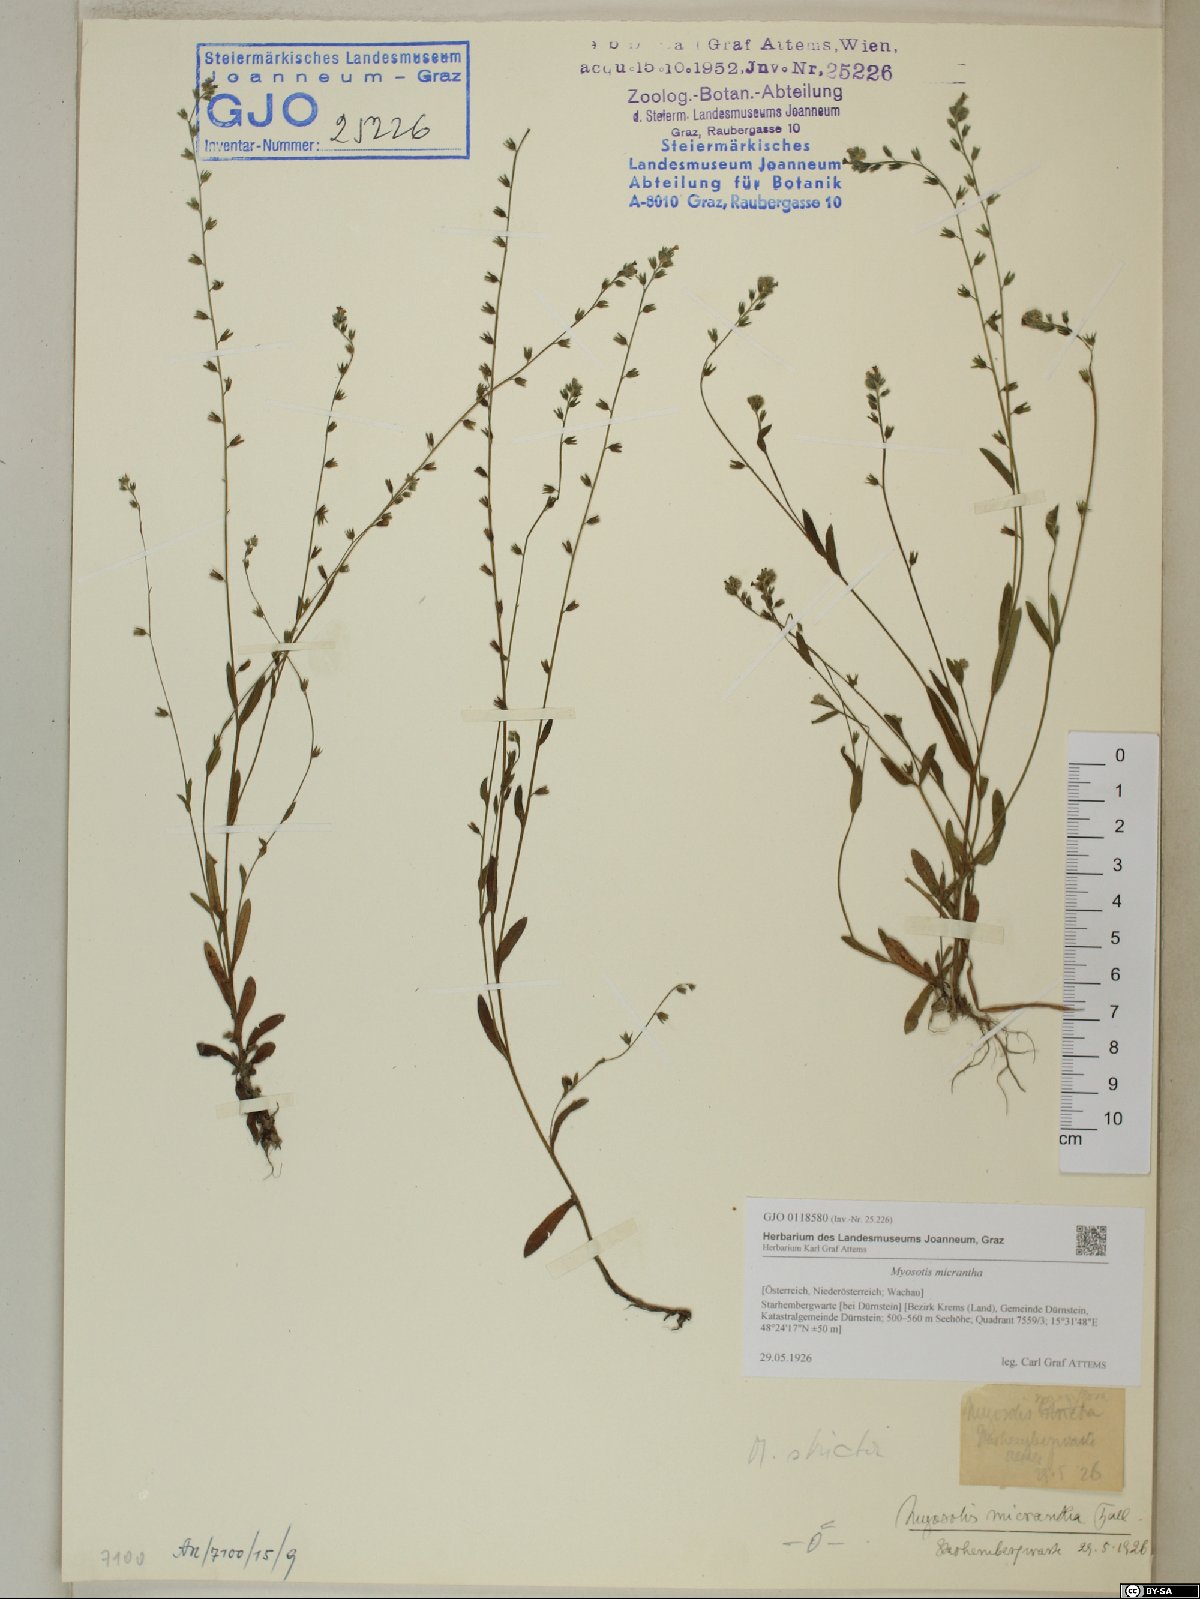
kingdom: Plantae
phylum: Tracheophyta
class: Magnoliopsida
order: Boraginales
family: Boraginaceae
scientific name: Boraginaceae
